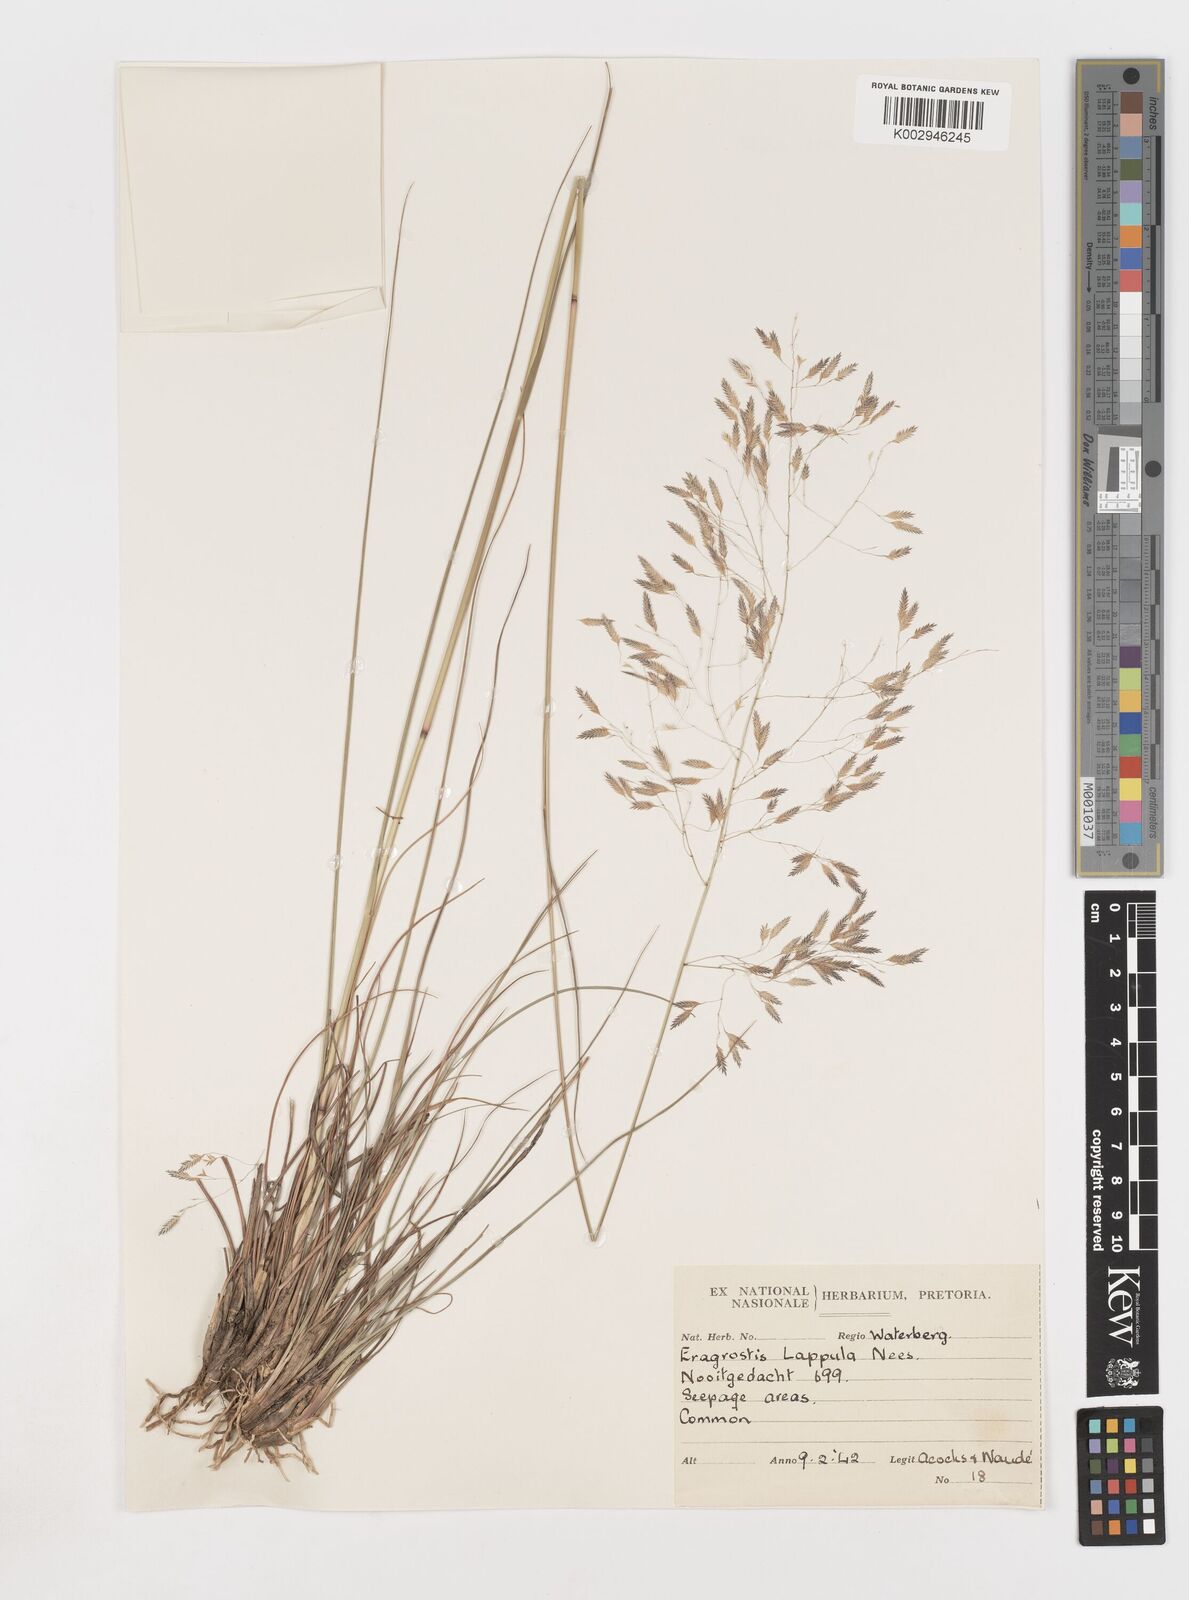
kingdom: Plantae
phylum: Tracheophyta
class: Liliopsida
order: Poales
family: Poaceae
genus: Eragrostis
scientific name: Eragrostis lappula
